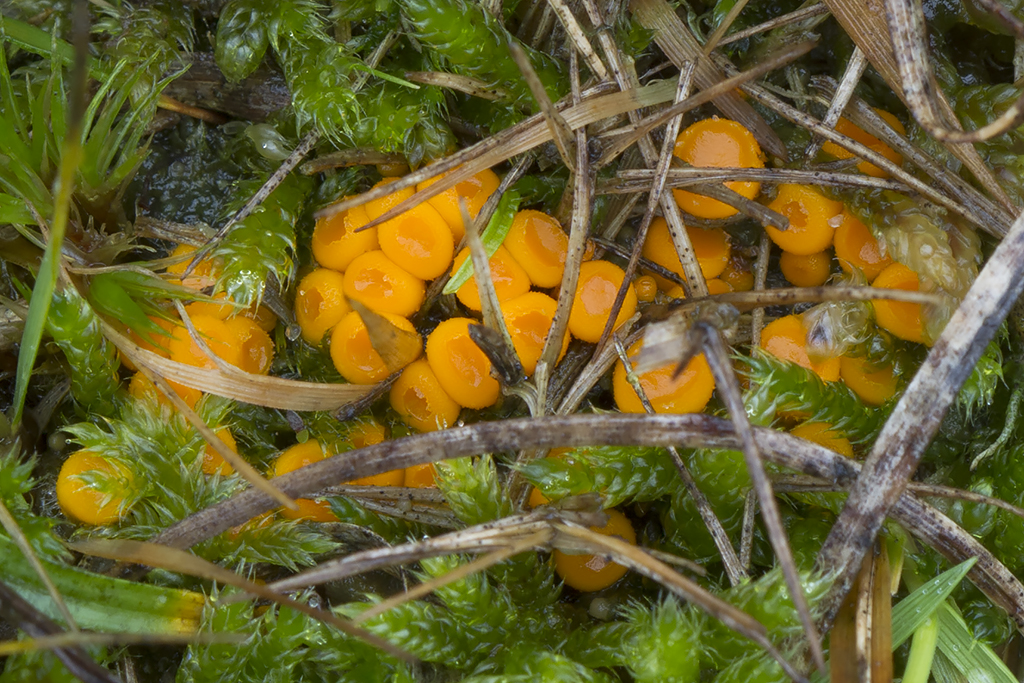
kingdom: Fungi
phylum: Ascomycota
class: Pezizomycetes
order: Pezizales
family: Pyronemataceae
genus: Byssonectria
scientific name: Byssonectria terrestris
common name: hjortebæger
